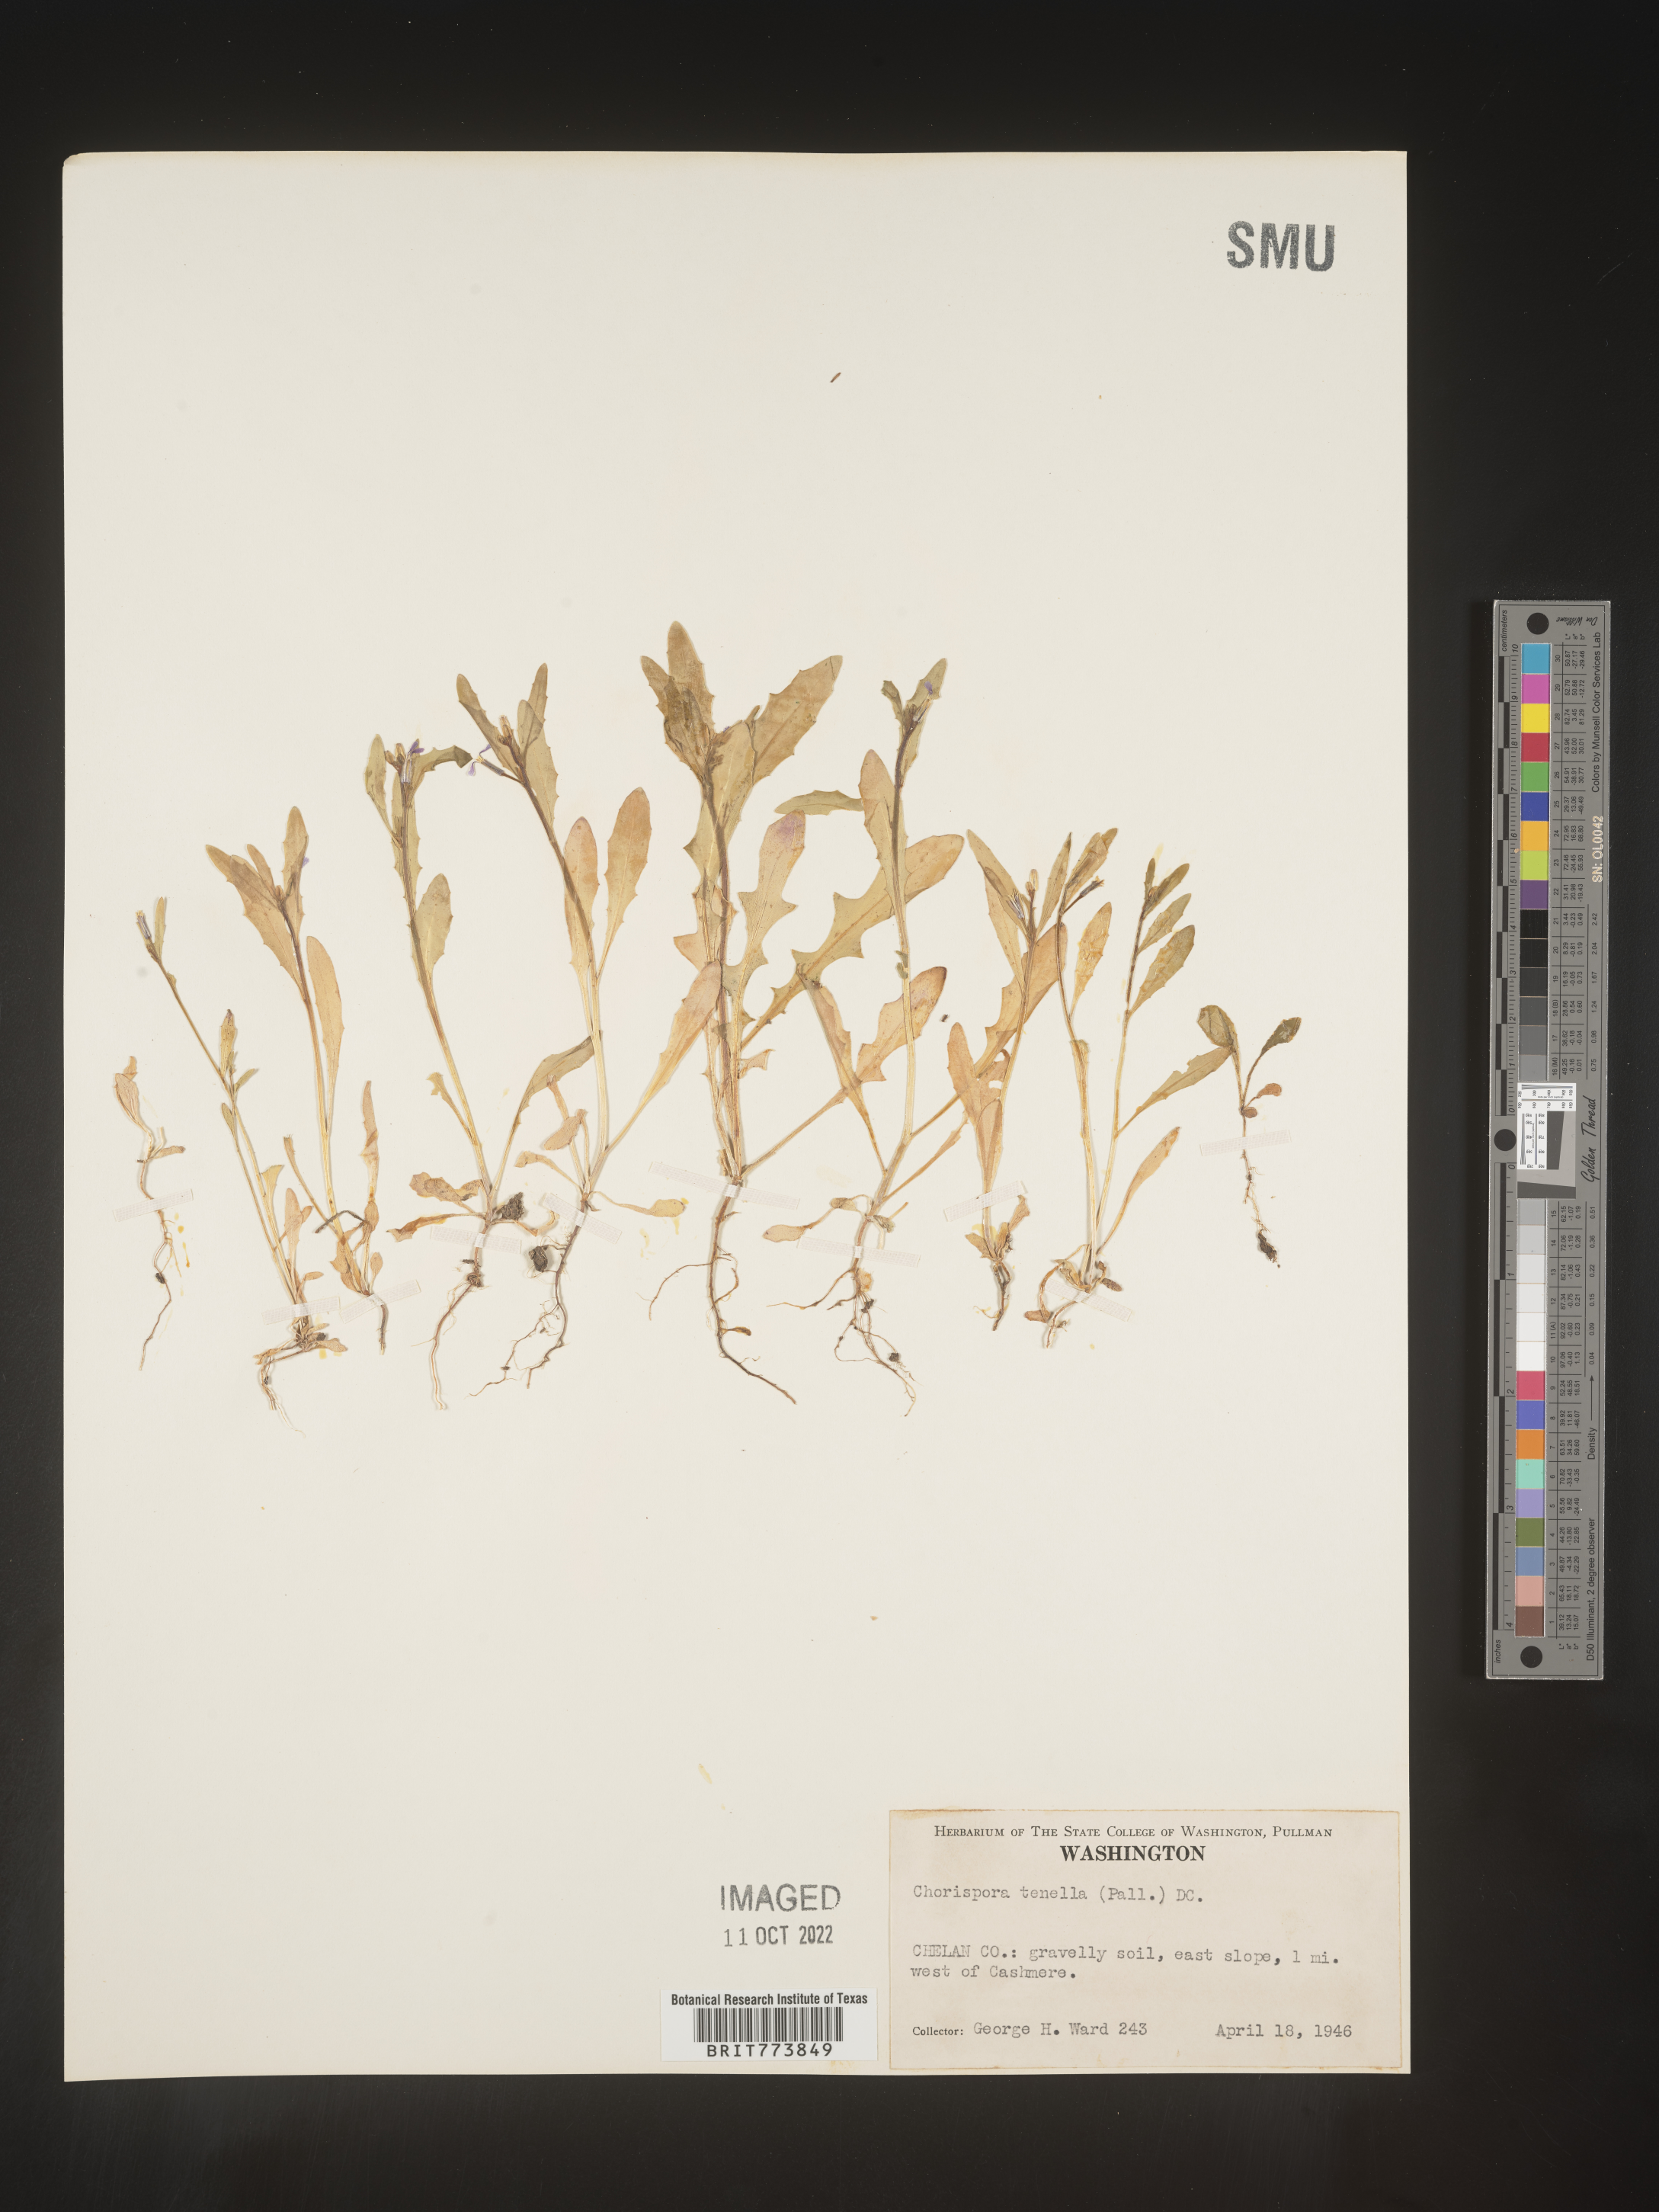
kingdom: Plantae
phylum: Tracheophyta
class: Magnoliopsida
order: Brassicales
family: Brassicaceae
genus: Chorispora
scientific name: Chorispora tenella
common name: Crossflower
